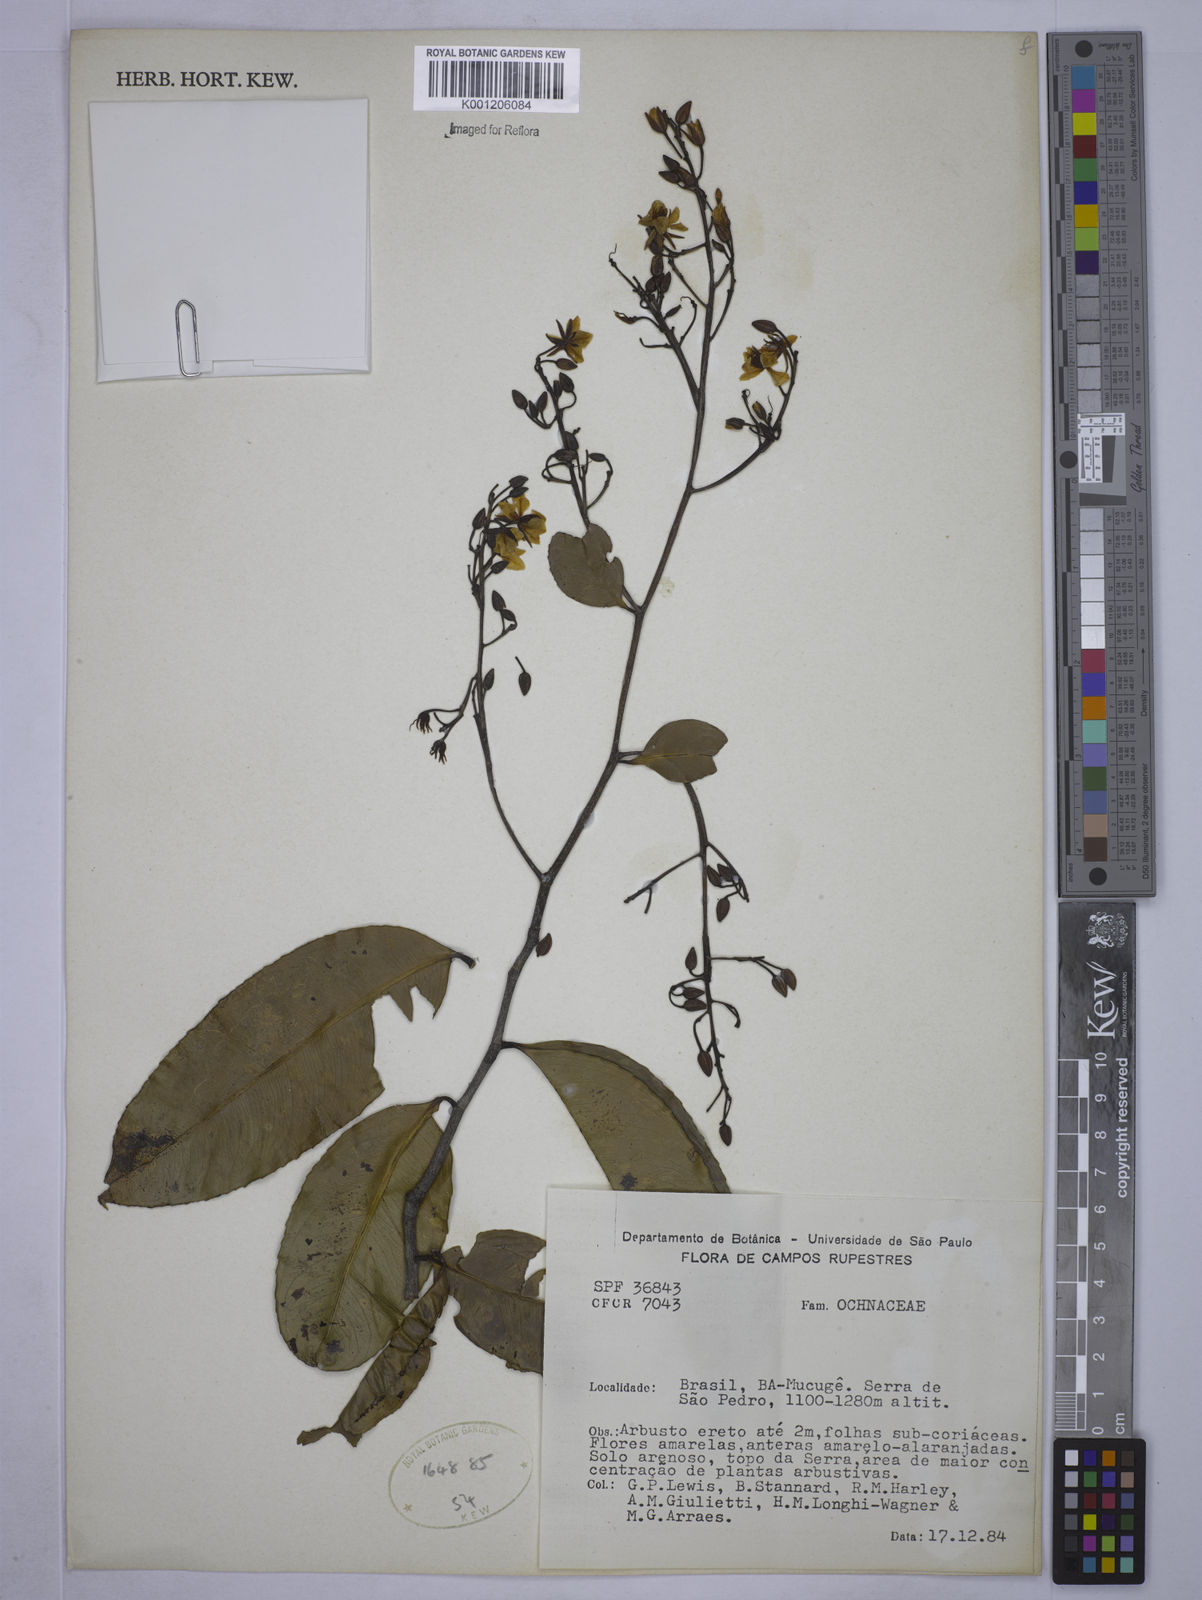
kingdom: Plantae
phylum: Tracheophyta
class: Magnoliopsida
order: Malpighiales
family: Ochnaceae
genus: Ouratea
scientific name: Ouratea
